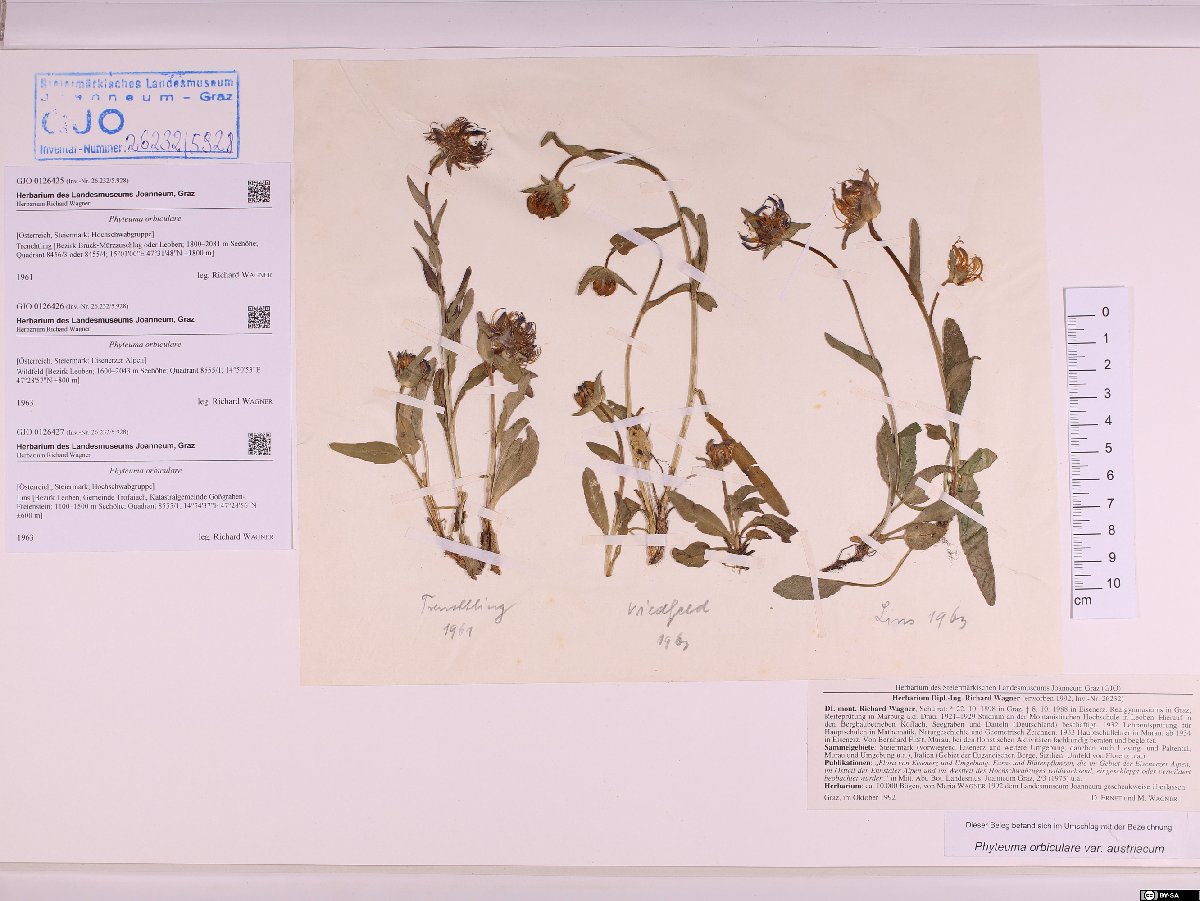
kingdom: Plantae
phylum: Tracheophyta
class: Magnoliopsida
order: Asterales
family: Campanulaceae
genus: Phyteuma
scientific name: Phyteuma orbiculare
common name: Round-headed rampion
